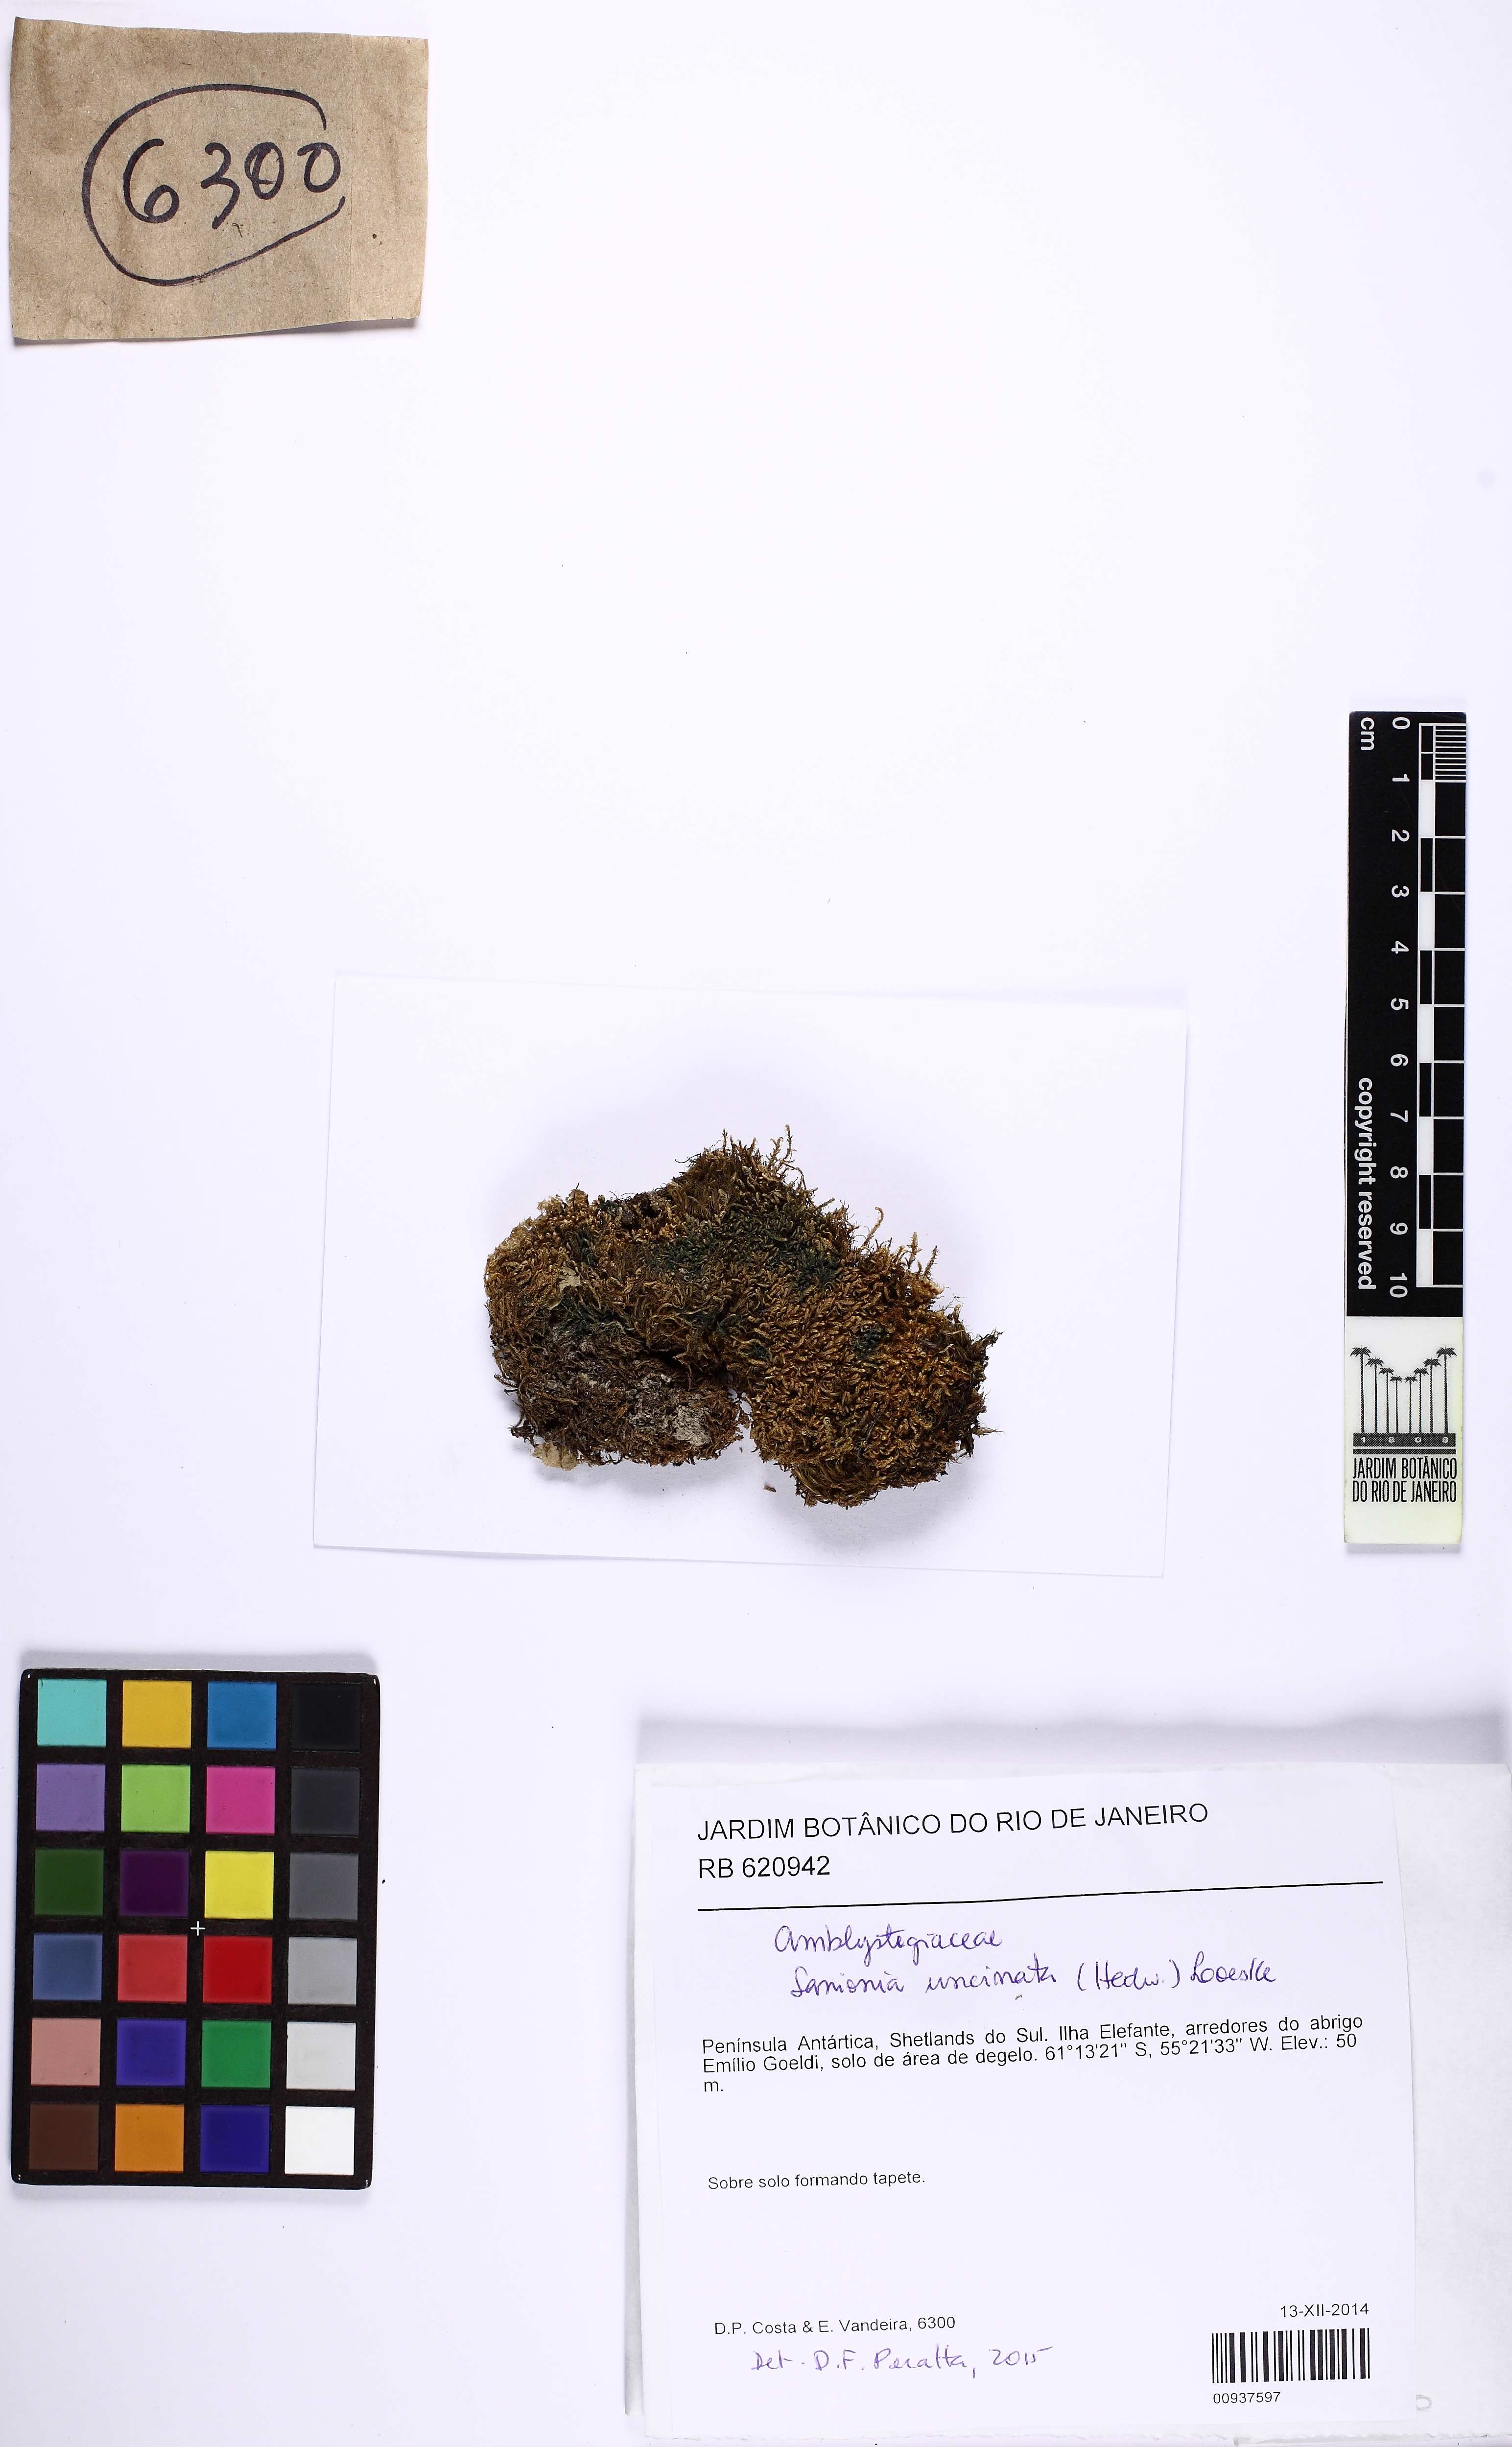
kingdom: Plantae
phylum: Bryophyta
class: Bryopsida
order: Dicranales
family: Dicranaceae
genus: Chorisodontium
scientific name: Chorisodontium
